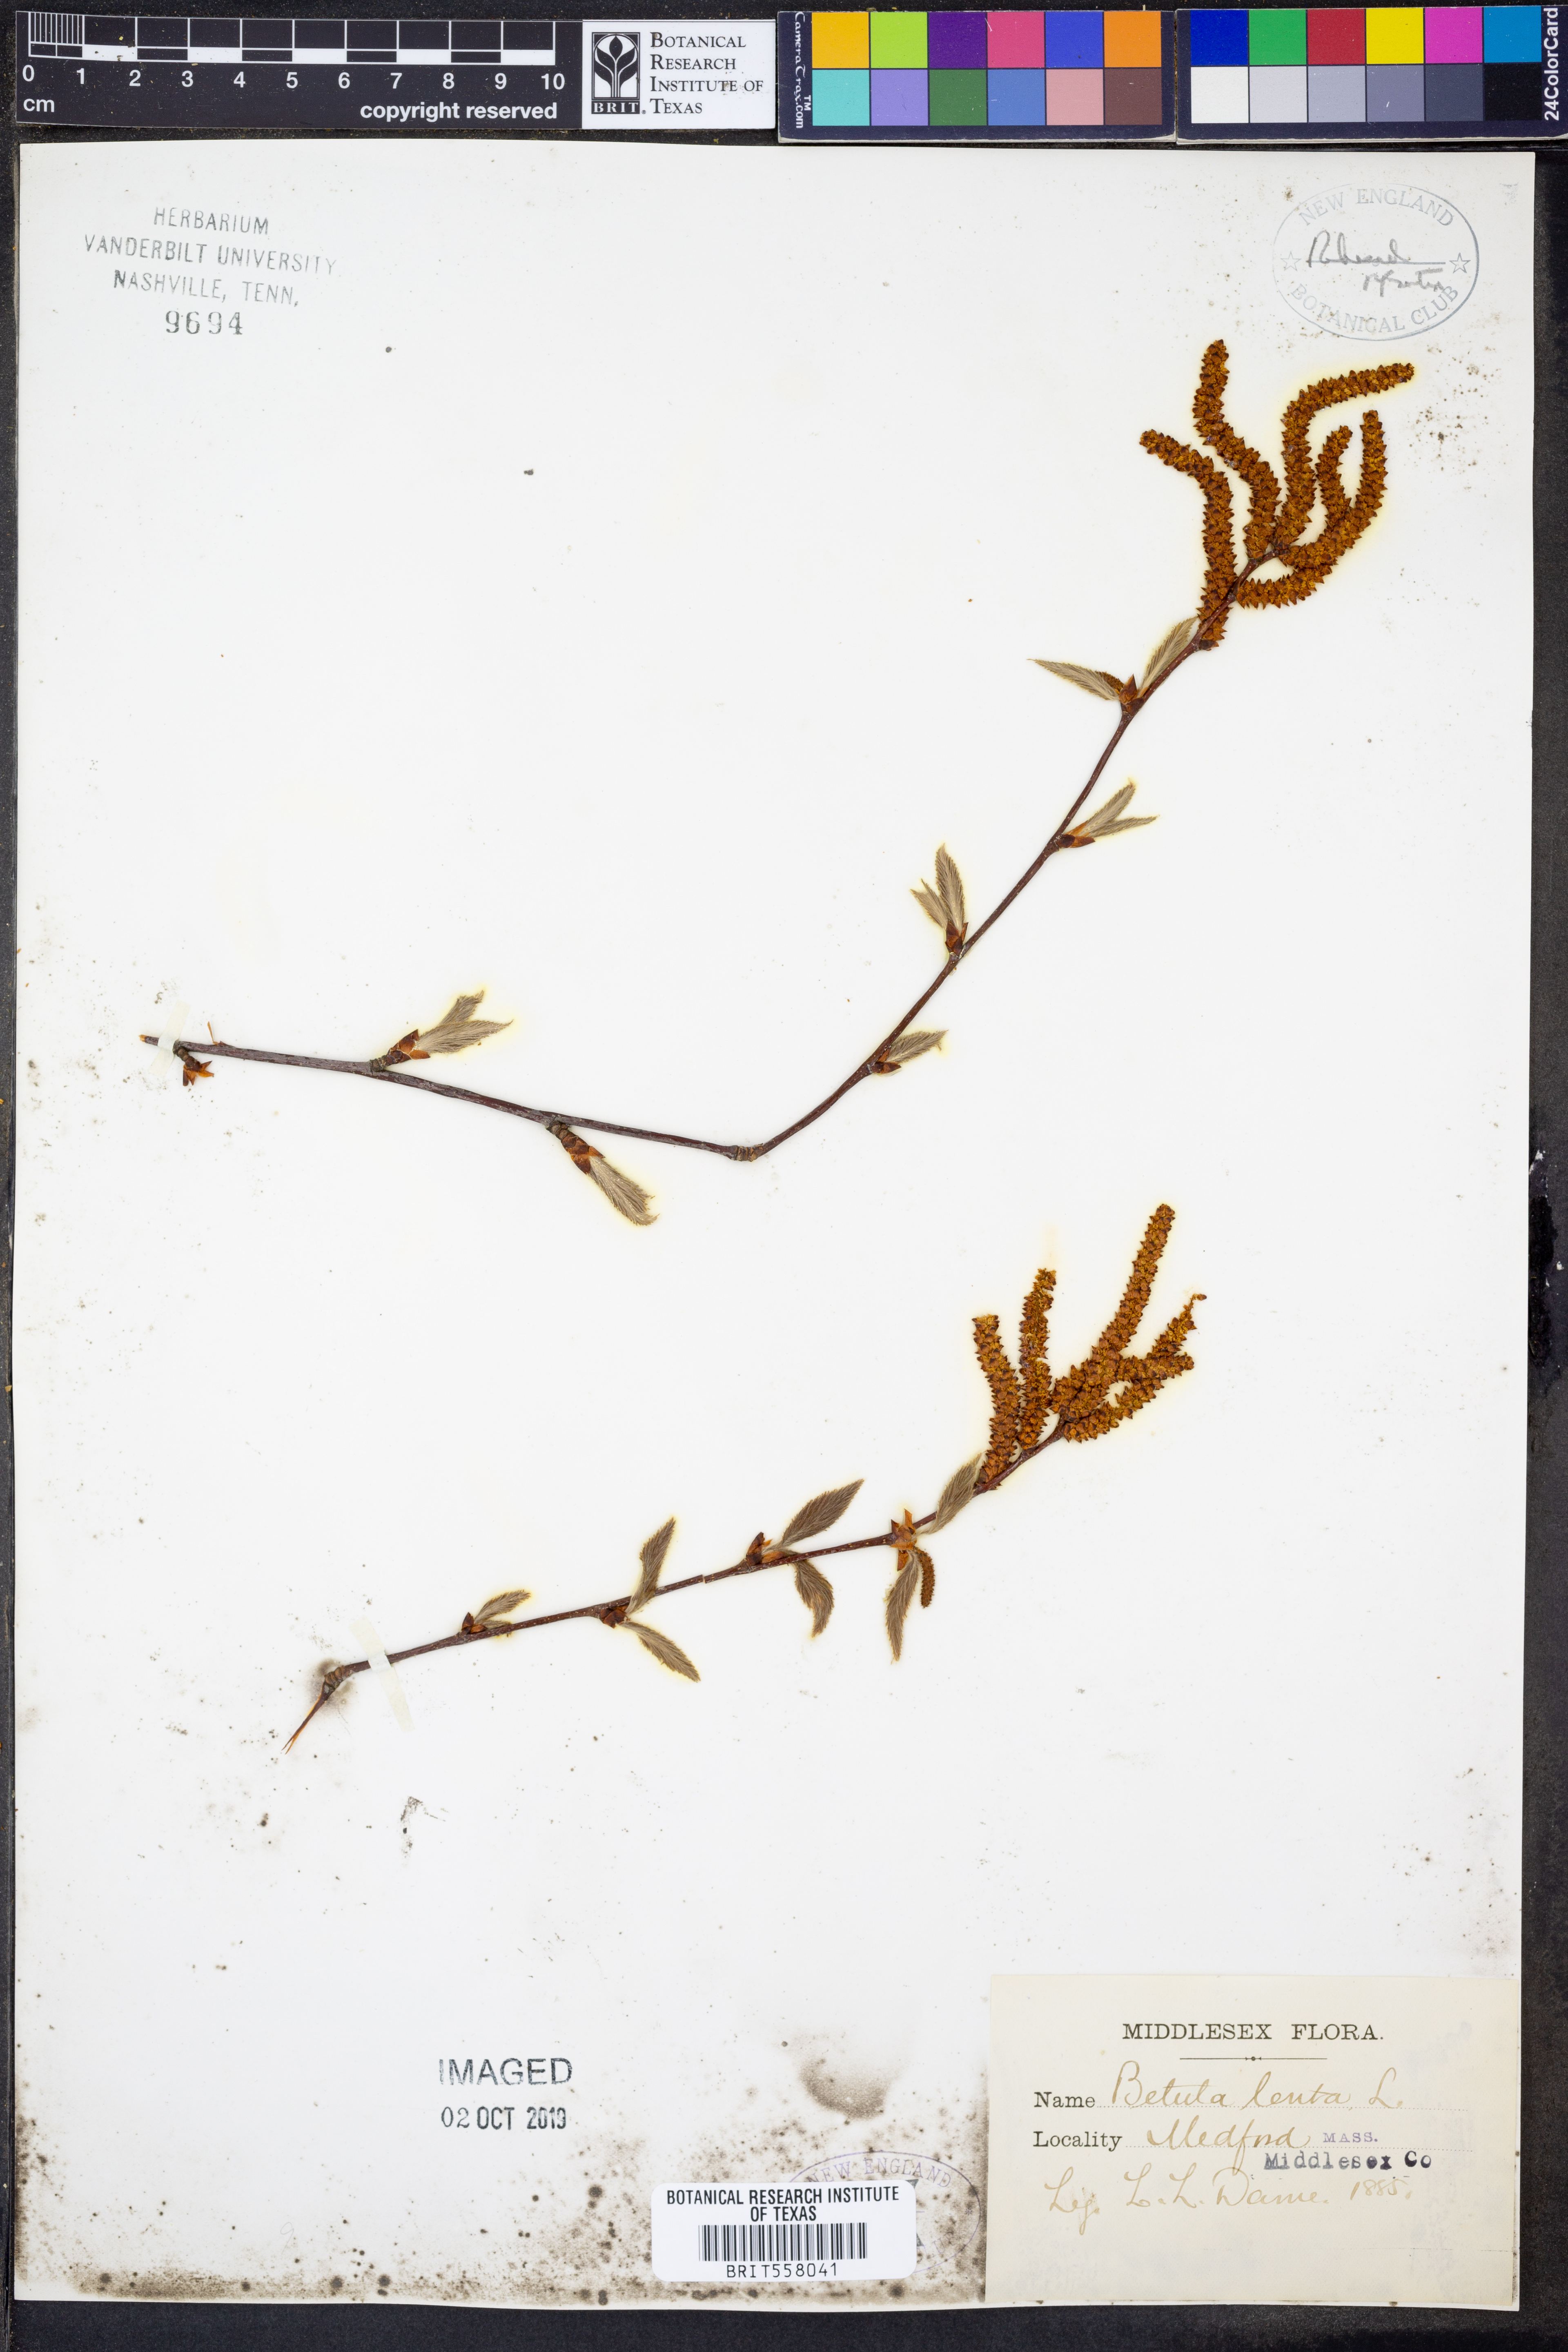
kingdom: Plantae
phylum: Tracheophyta
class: Magnoliopsida
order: Fagales
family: Betulaceae
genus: Betula
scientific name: Betula lenta
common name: Black birch
